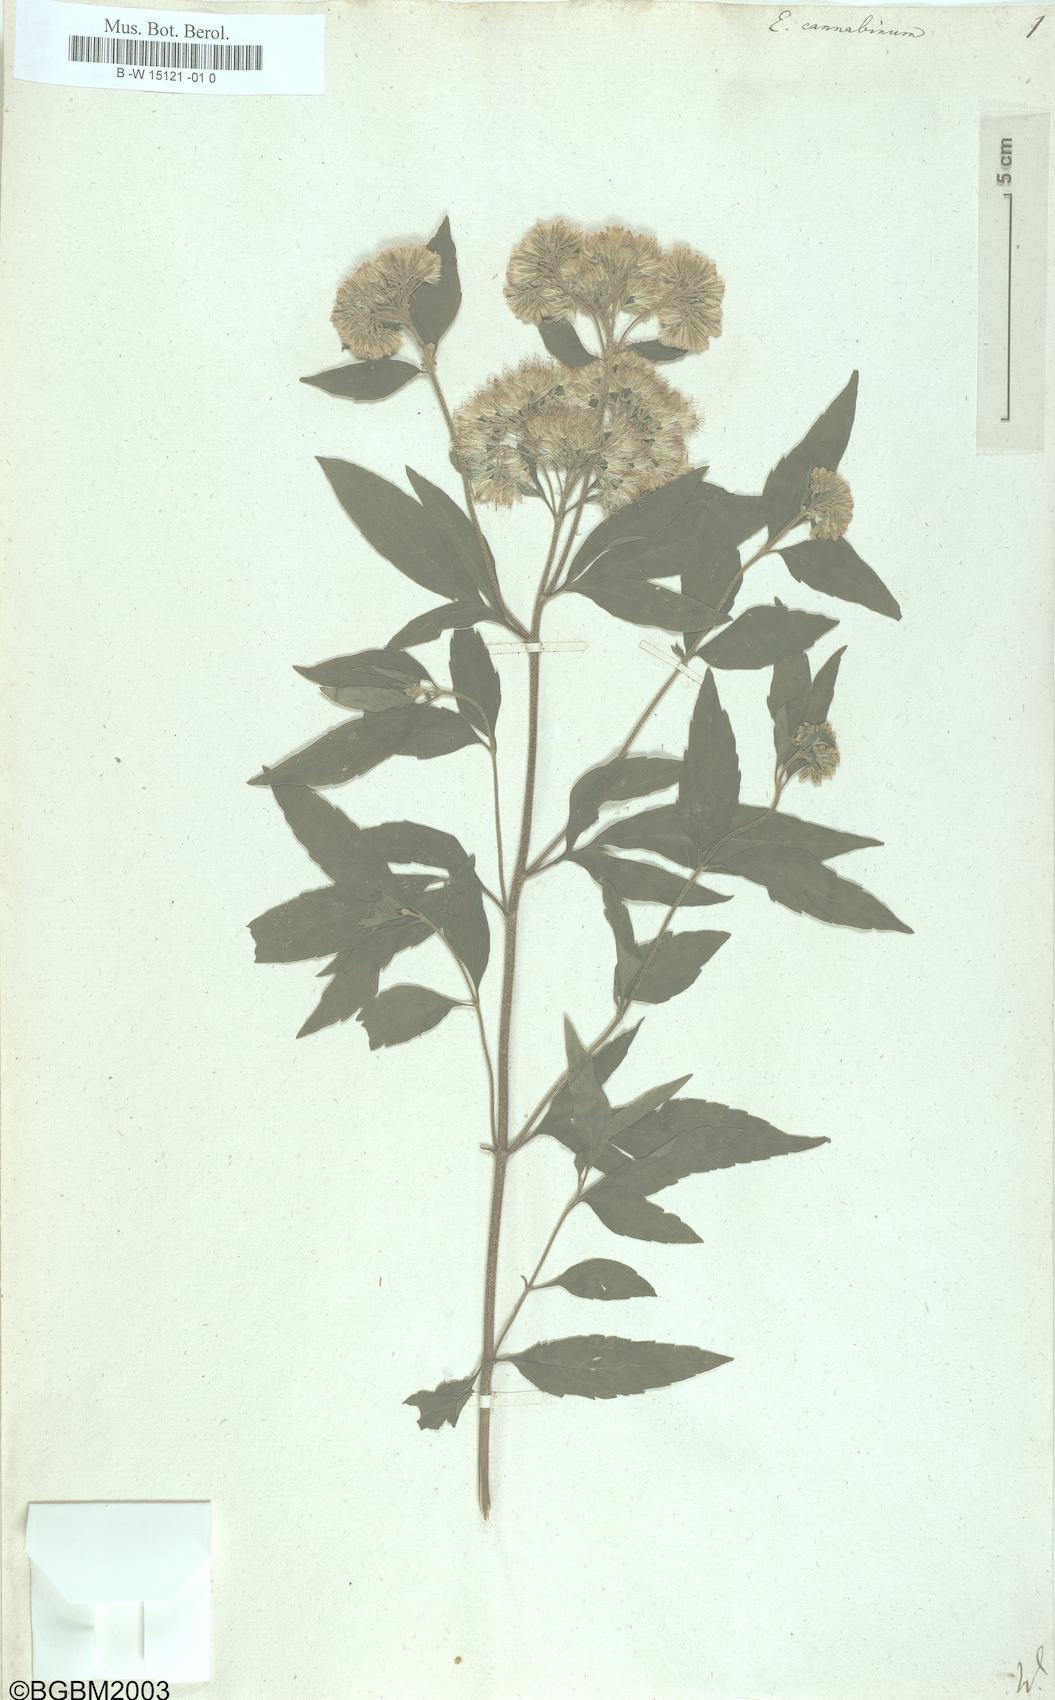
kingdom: Plantae
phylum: Tracheophyta
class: Magnoliopsida
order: Asterales
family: Asteraceae
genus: Eupatorium
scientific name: Eupatorium cannabinum
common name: Hemp-agrimony
